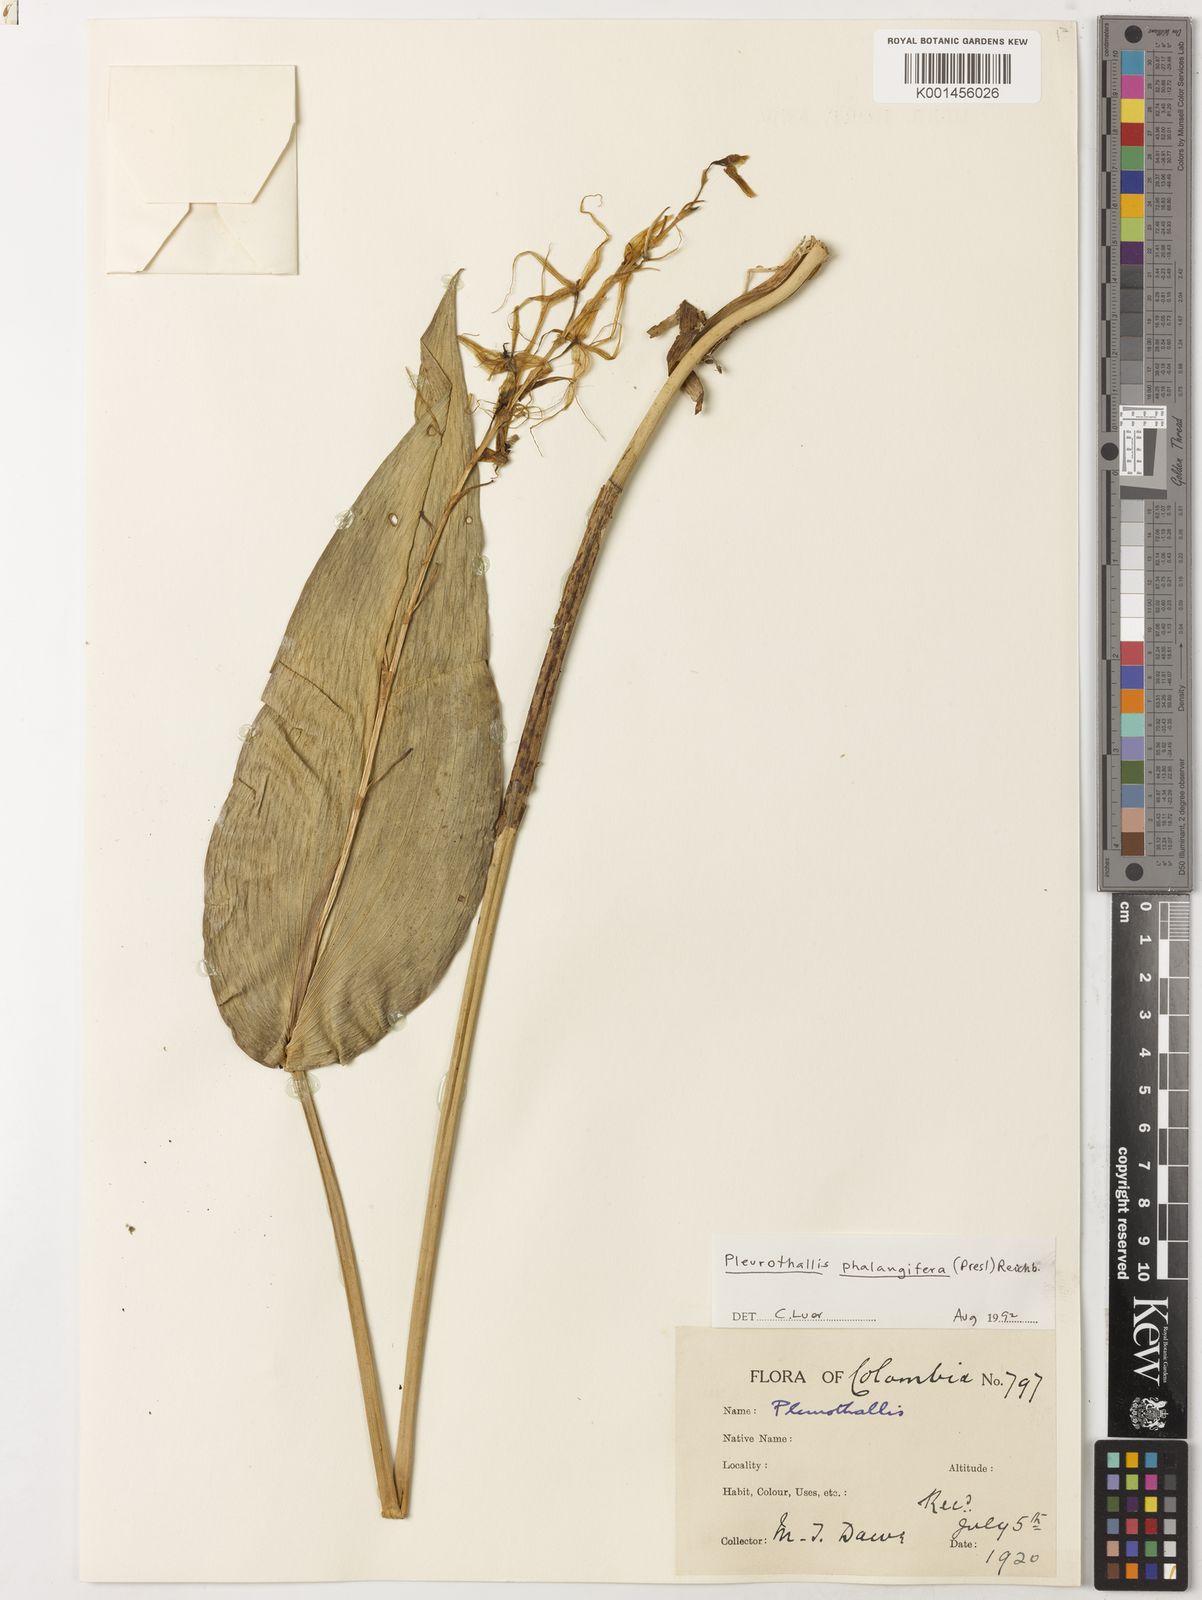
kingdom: Plantae
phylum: Tracheophyta
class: Liliopsida
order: Asparagales
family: Orchidaceae
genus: Pleurothallis
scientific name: Pleurothallis phalangifera
